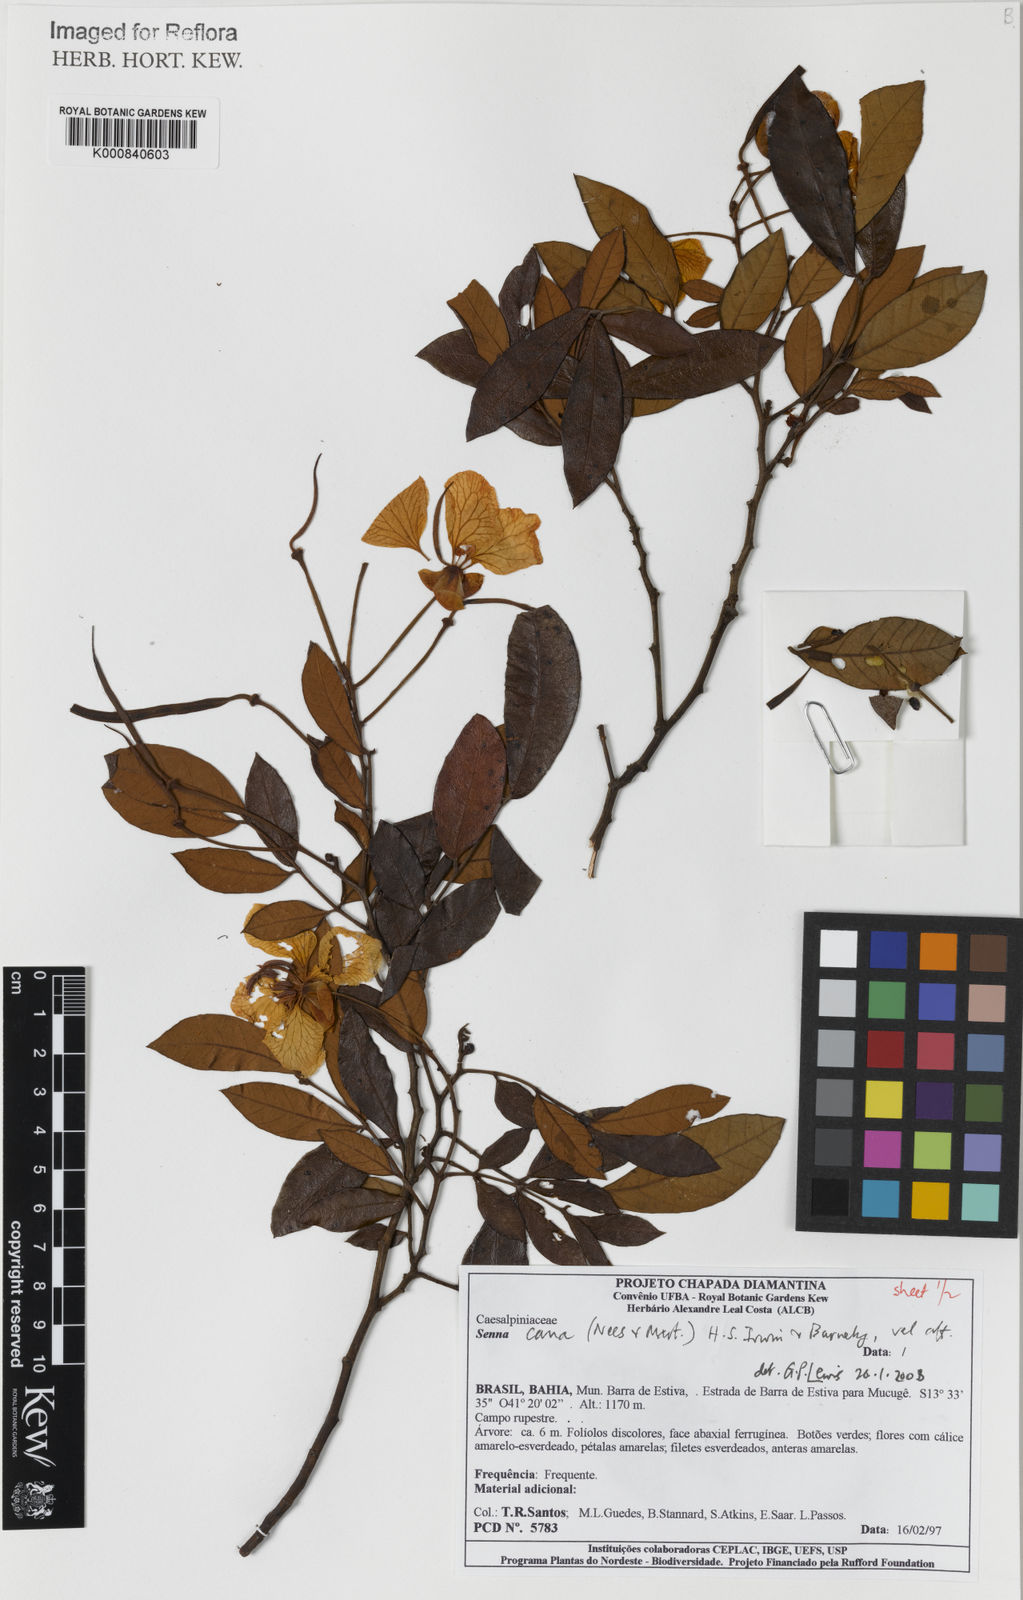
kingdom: Plantae
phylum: Tracheophyta
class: Magnoliopsida
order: Fabales
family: Fabaceae
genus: Senna
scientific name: Senna cana
